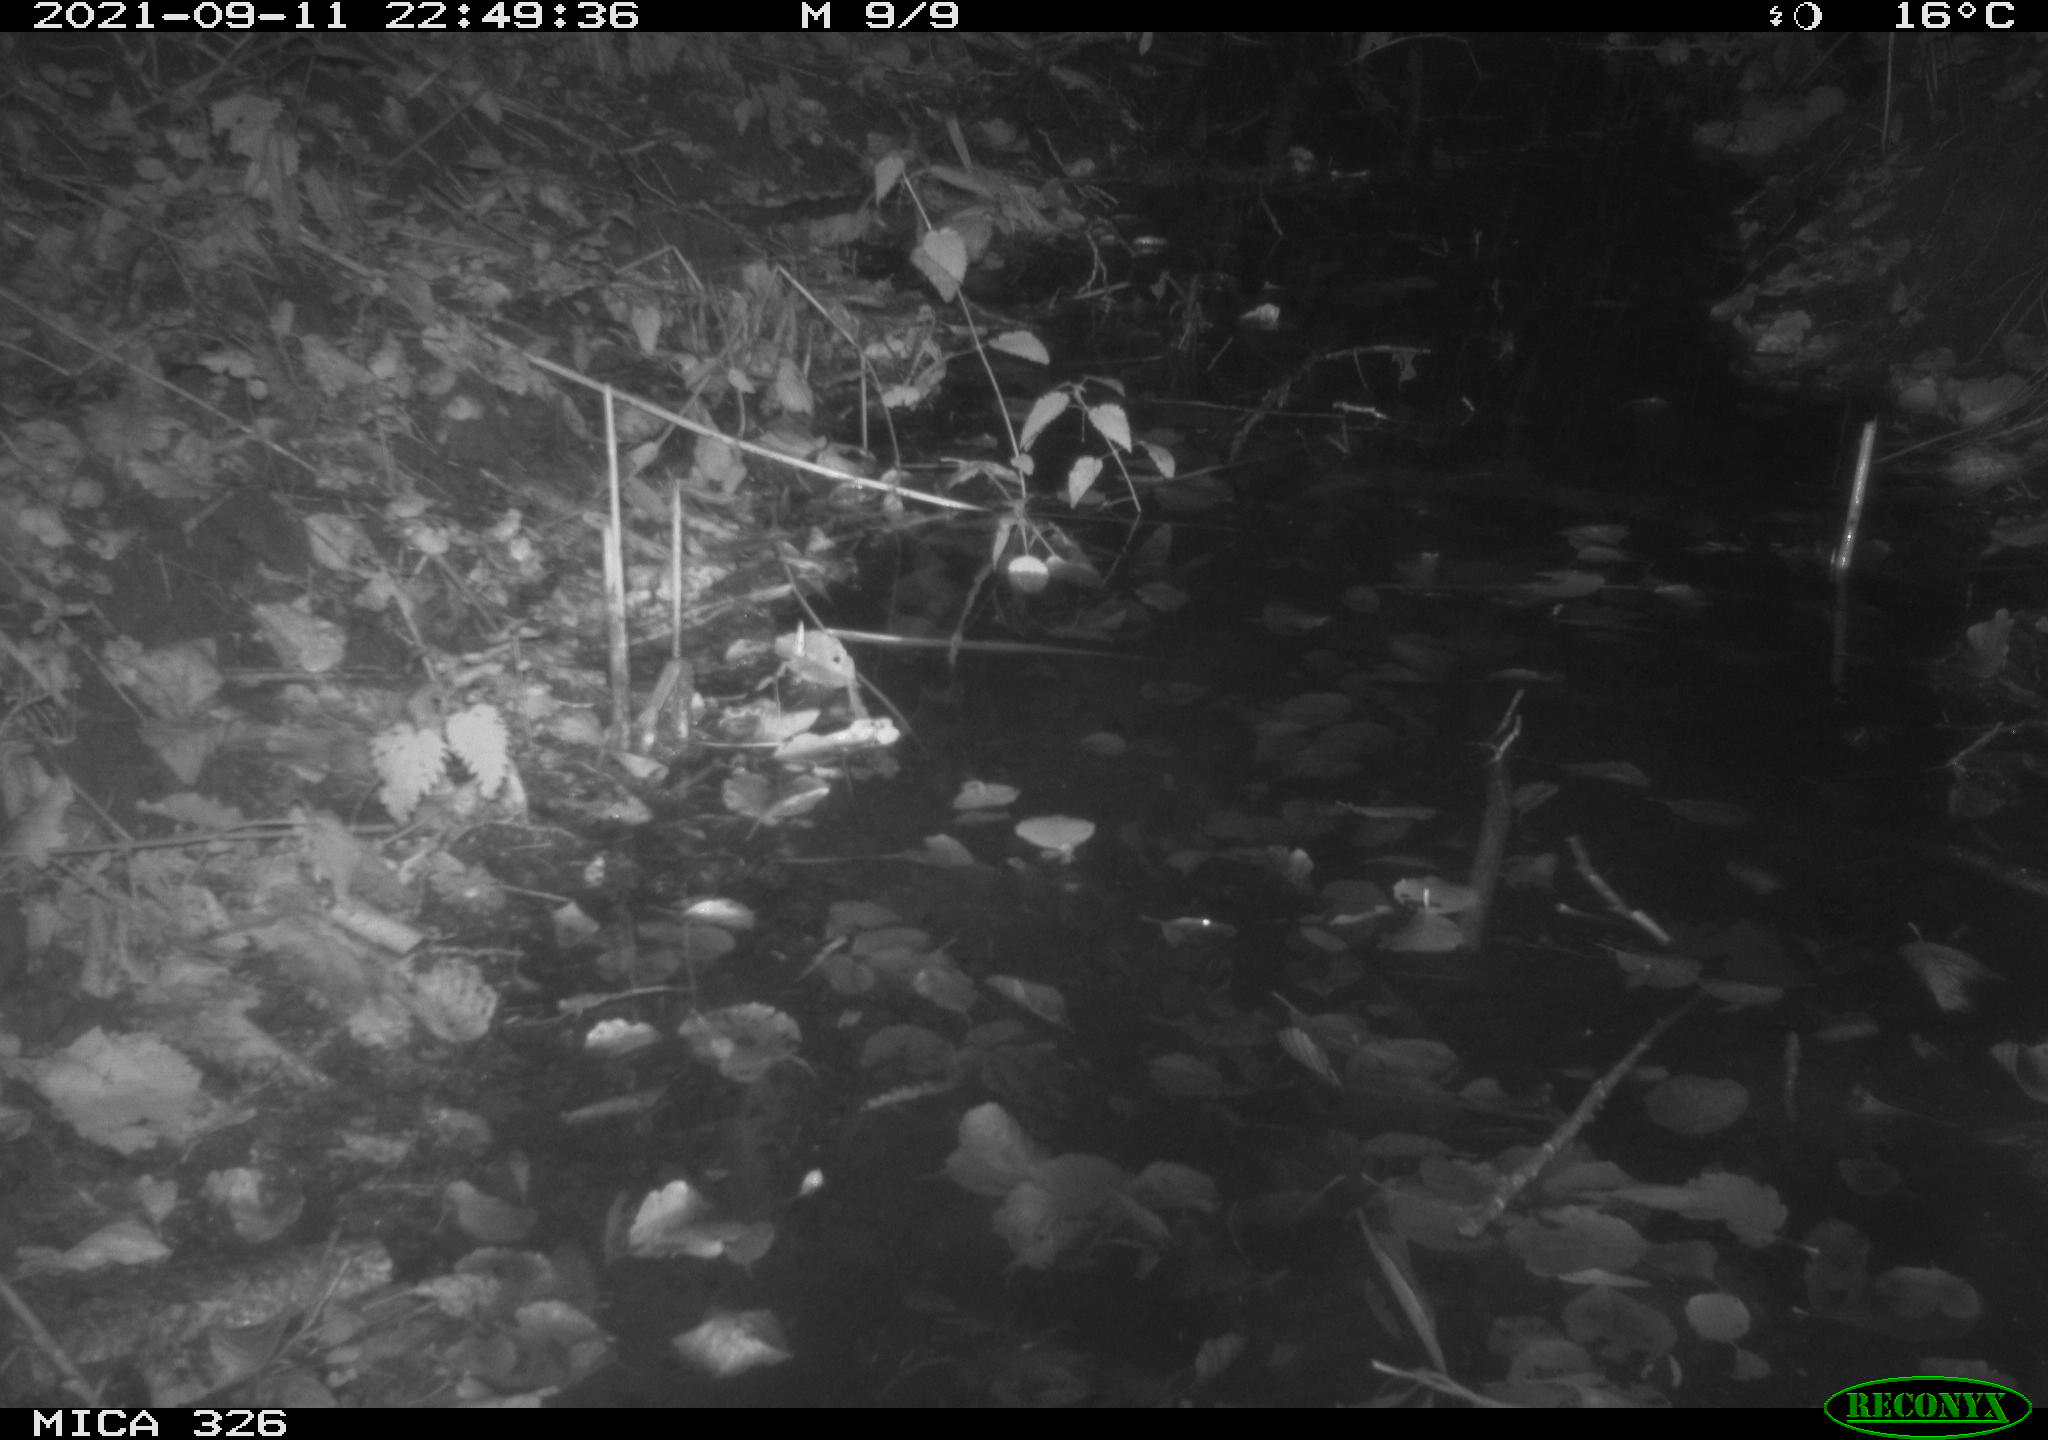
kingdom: Animalia
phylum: Chordata
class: Mammalia
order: Rodentia
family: Myocastoridae
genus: Myocastor
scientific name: Myocastor coypus
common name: Coypu
